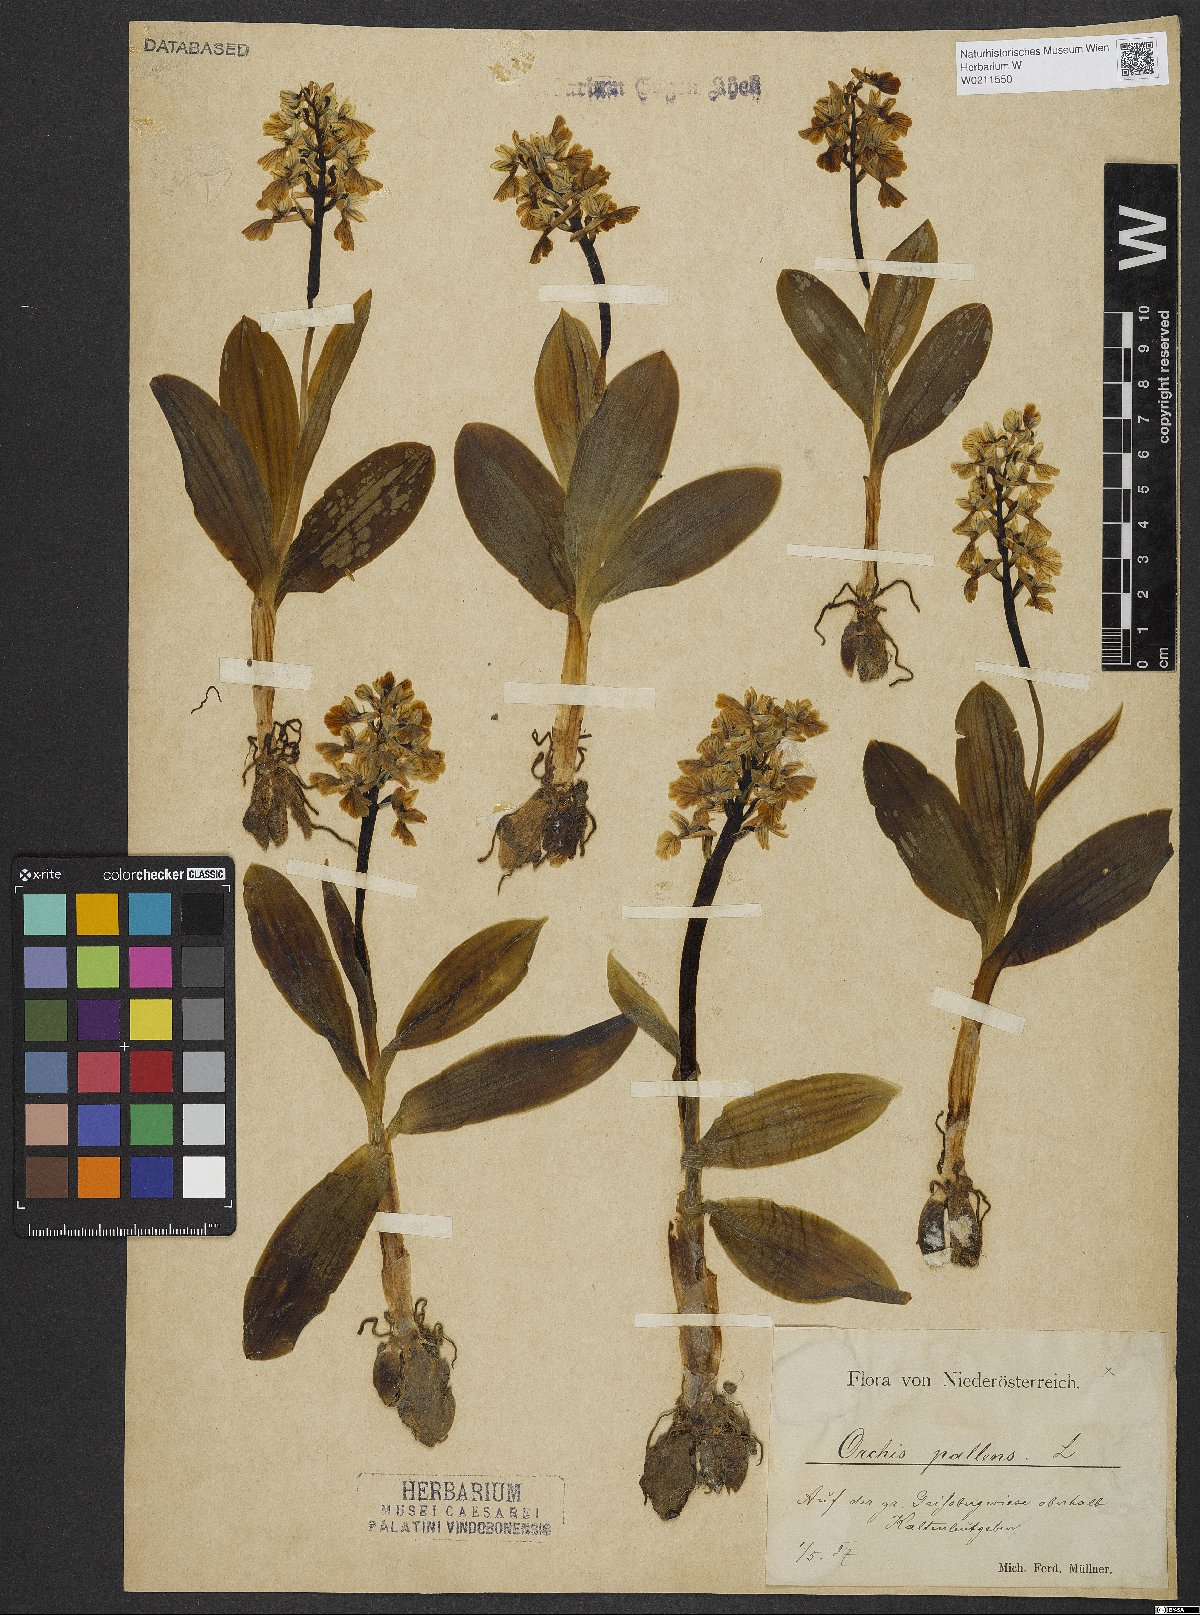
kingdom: Plantae
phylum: Tracheophyta
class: Liliopsida
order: Asparagales
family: Orchidaceae
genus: Orchis
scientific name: Orchis pallens
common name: Pale-flowered orchid
